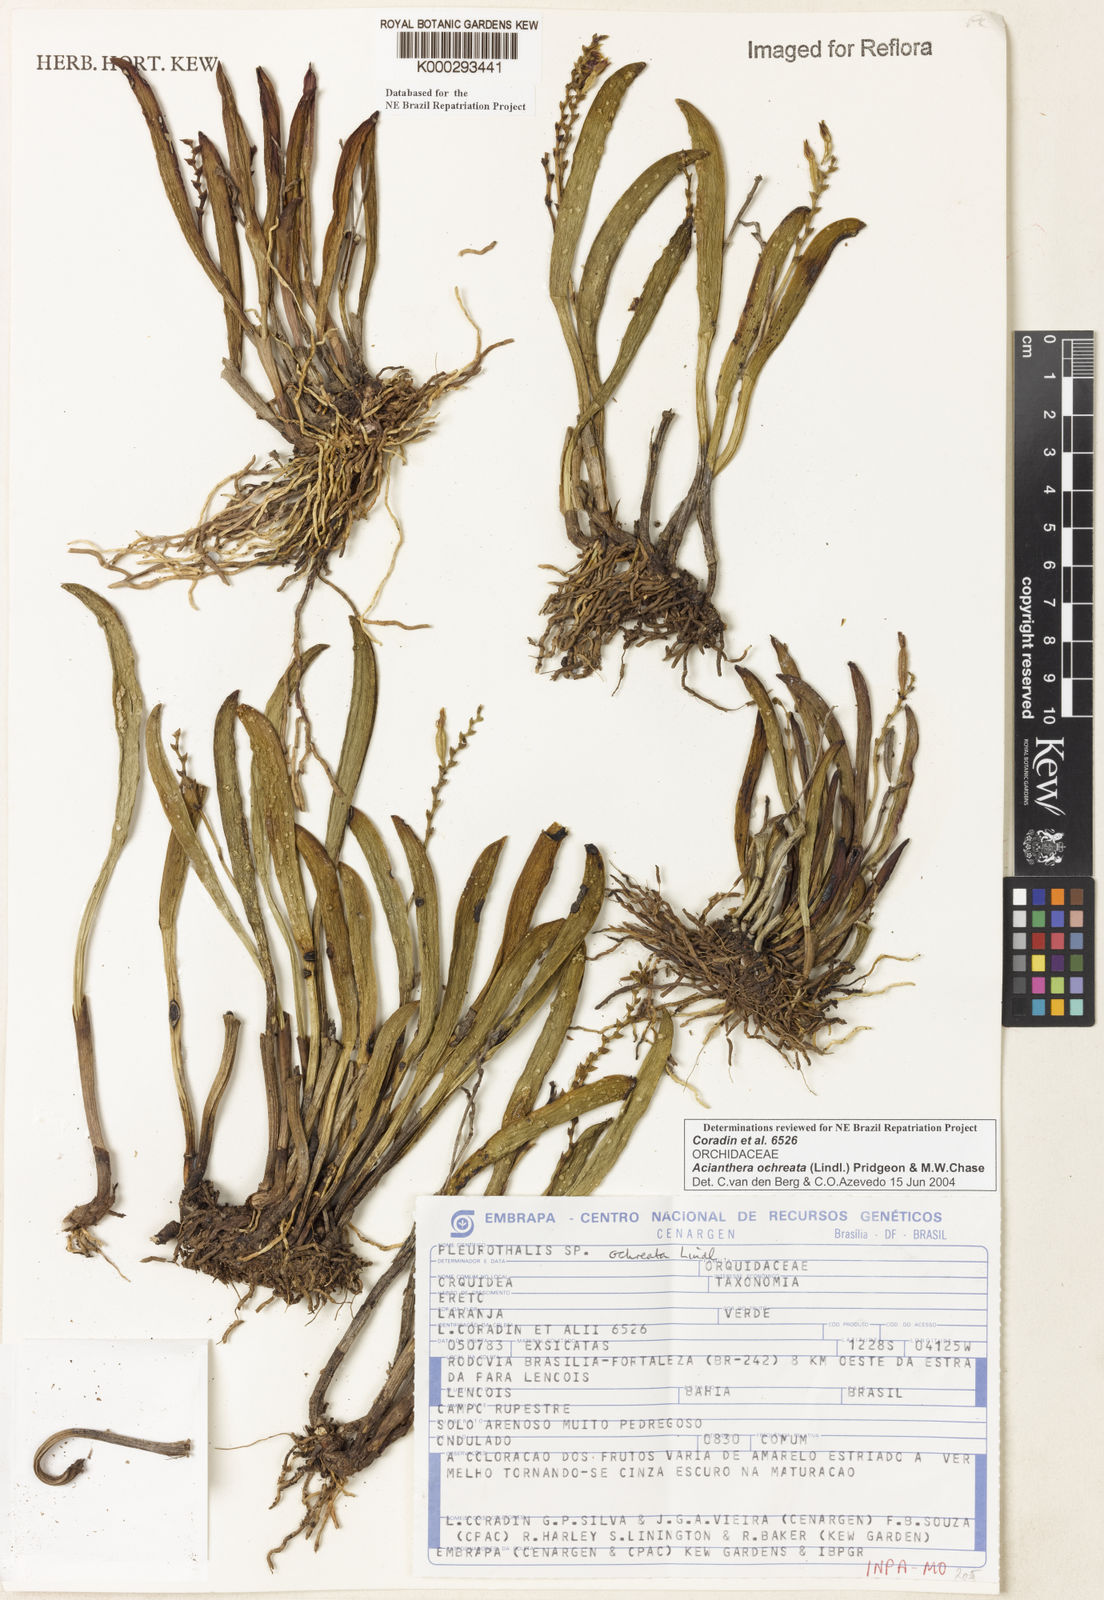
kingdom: Plantae
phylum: Tracheophyta
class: Liliopsida
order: Asparagales
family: Orchidaceae
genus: Acianthera
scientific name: Acianthera ochreata
